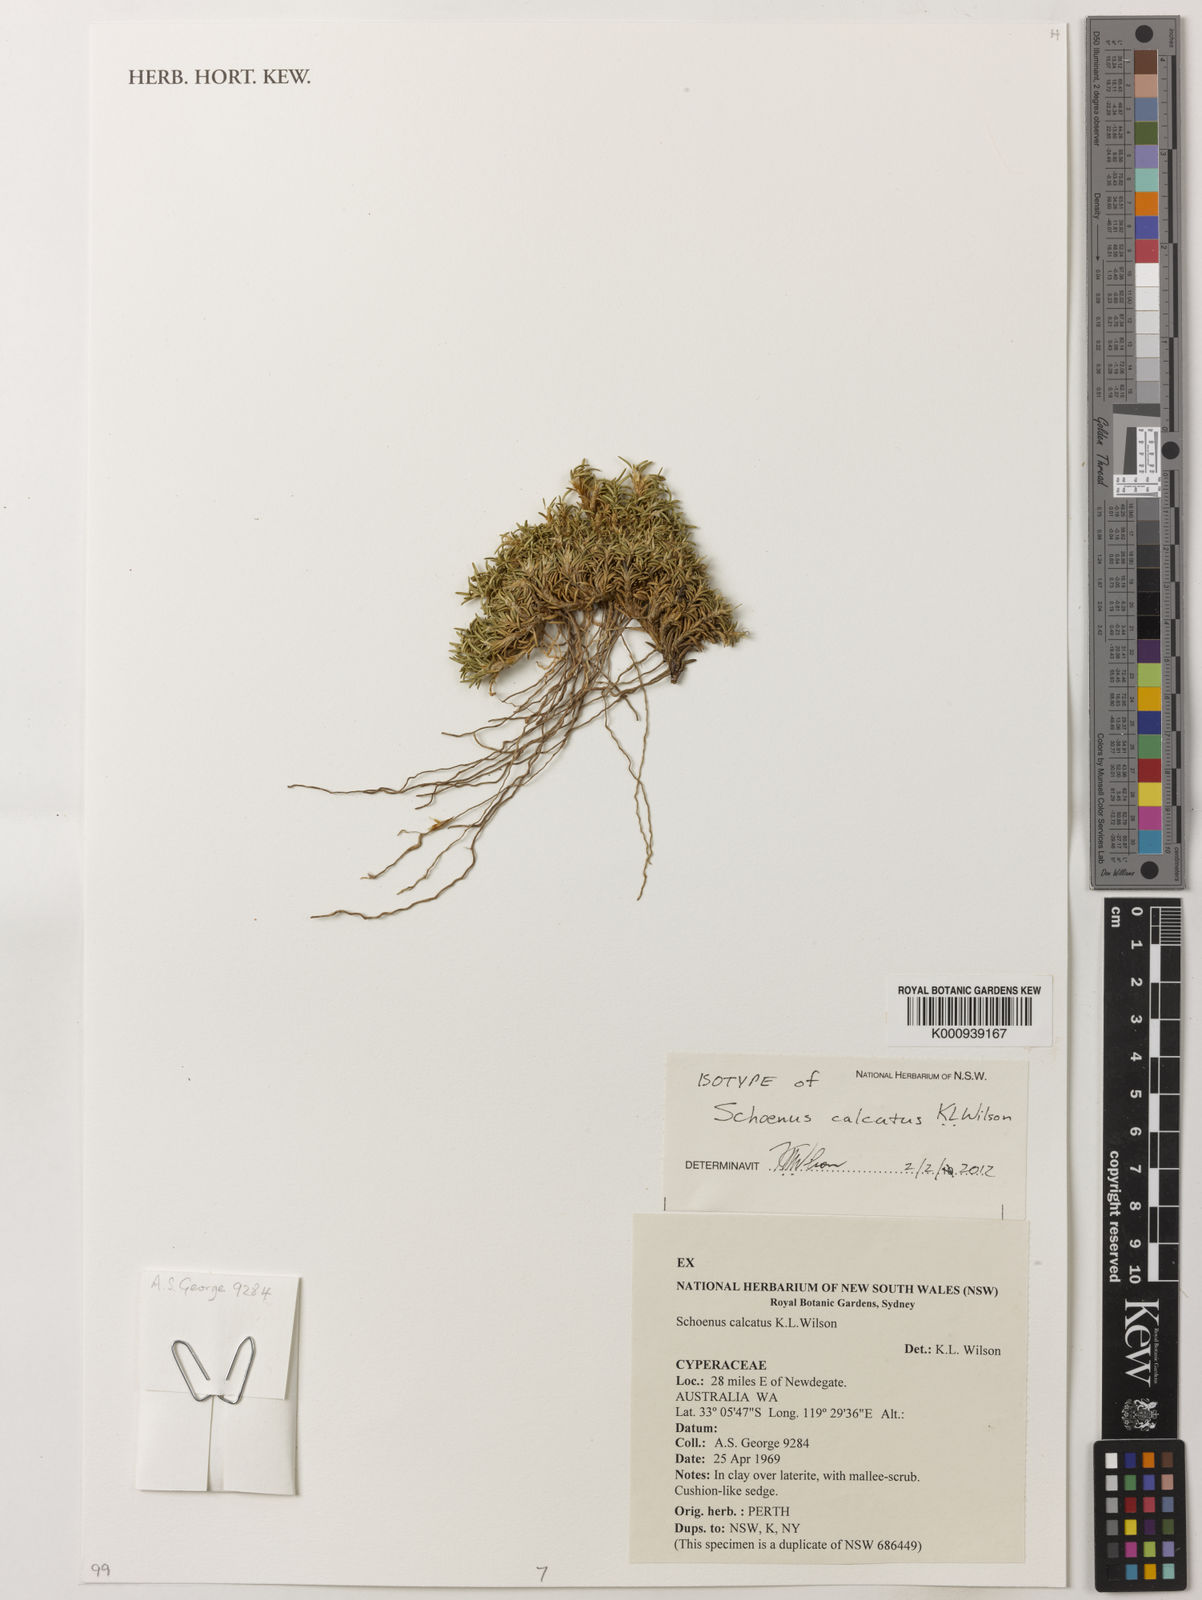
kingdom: Plantae
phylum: Tracheophyta
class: Liliopsida
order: Poales
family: Cyperaceae
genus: Schoenus
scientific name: Schoenus calcatus
